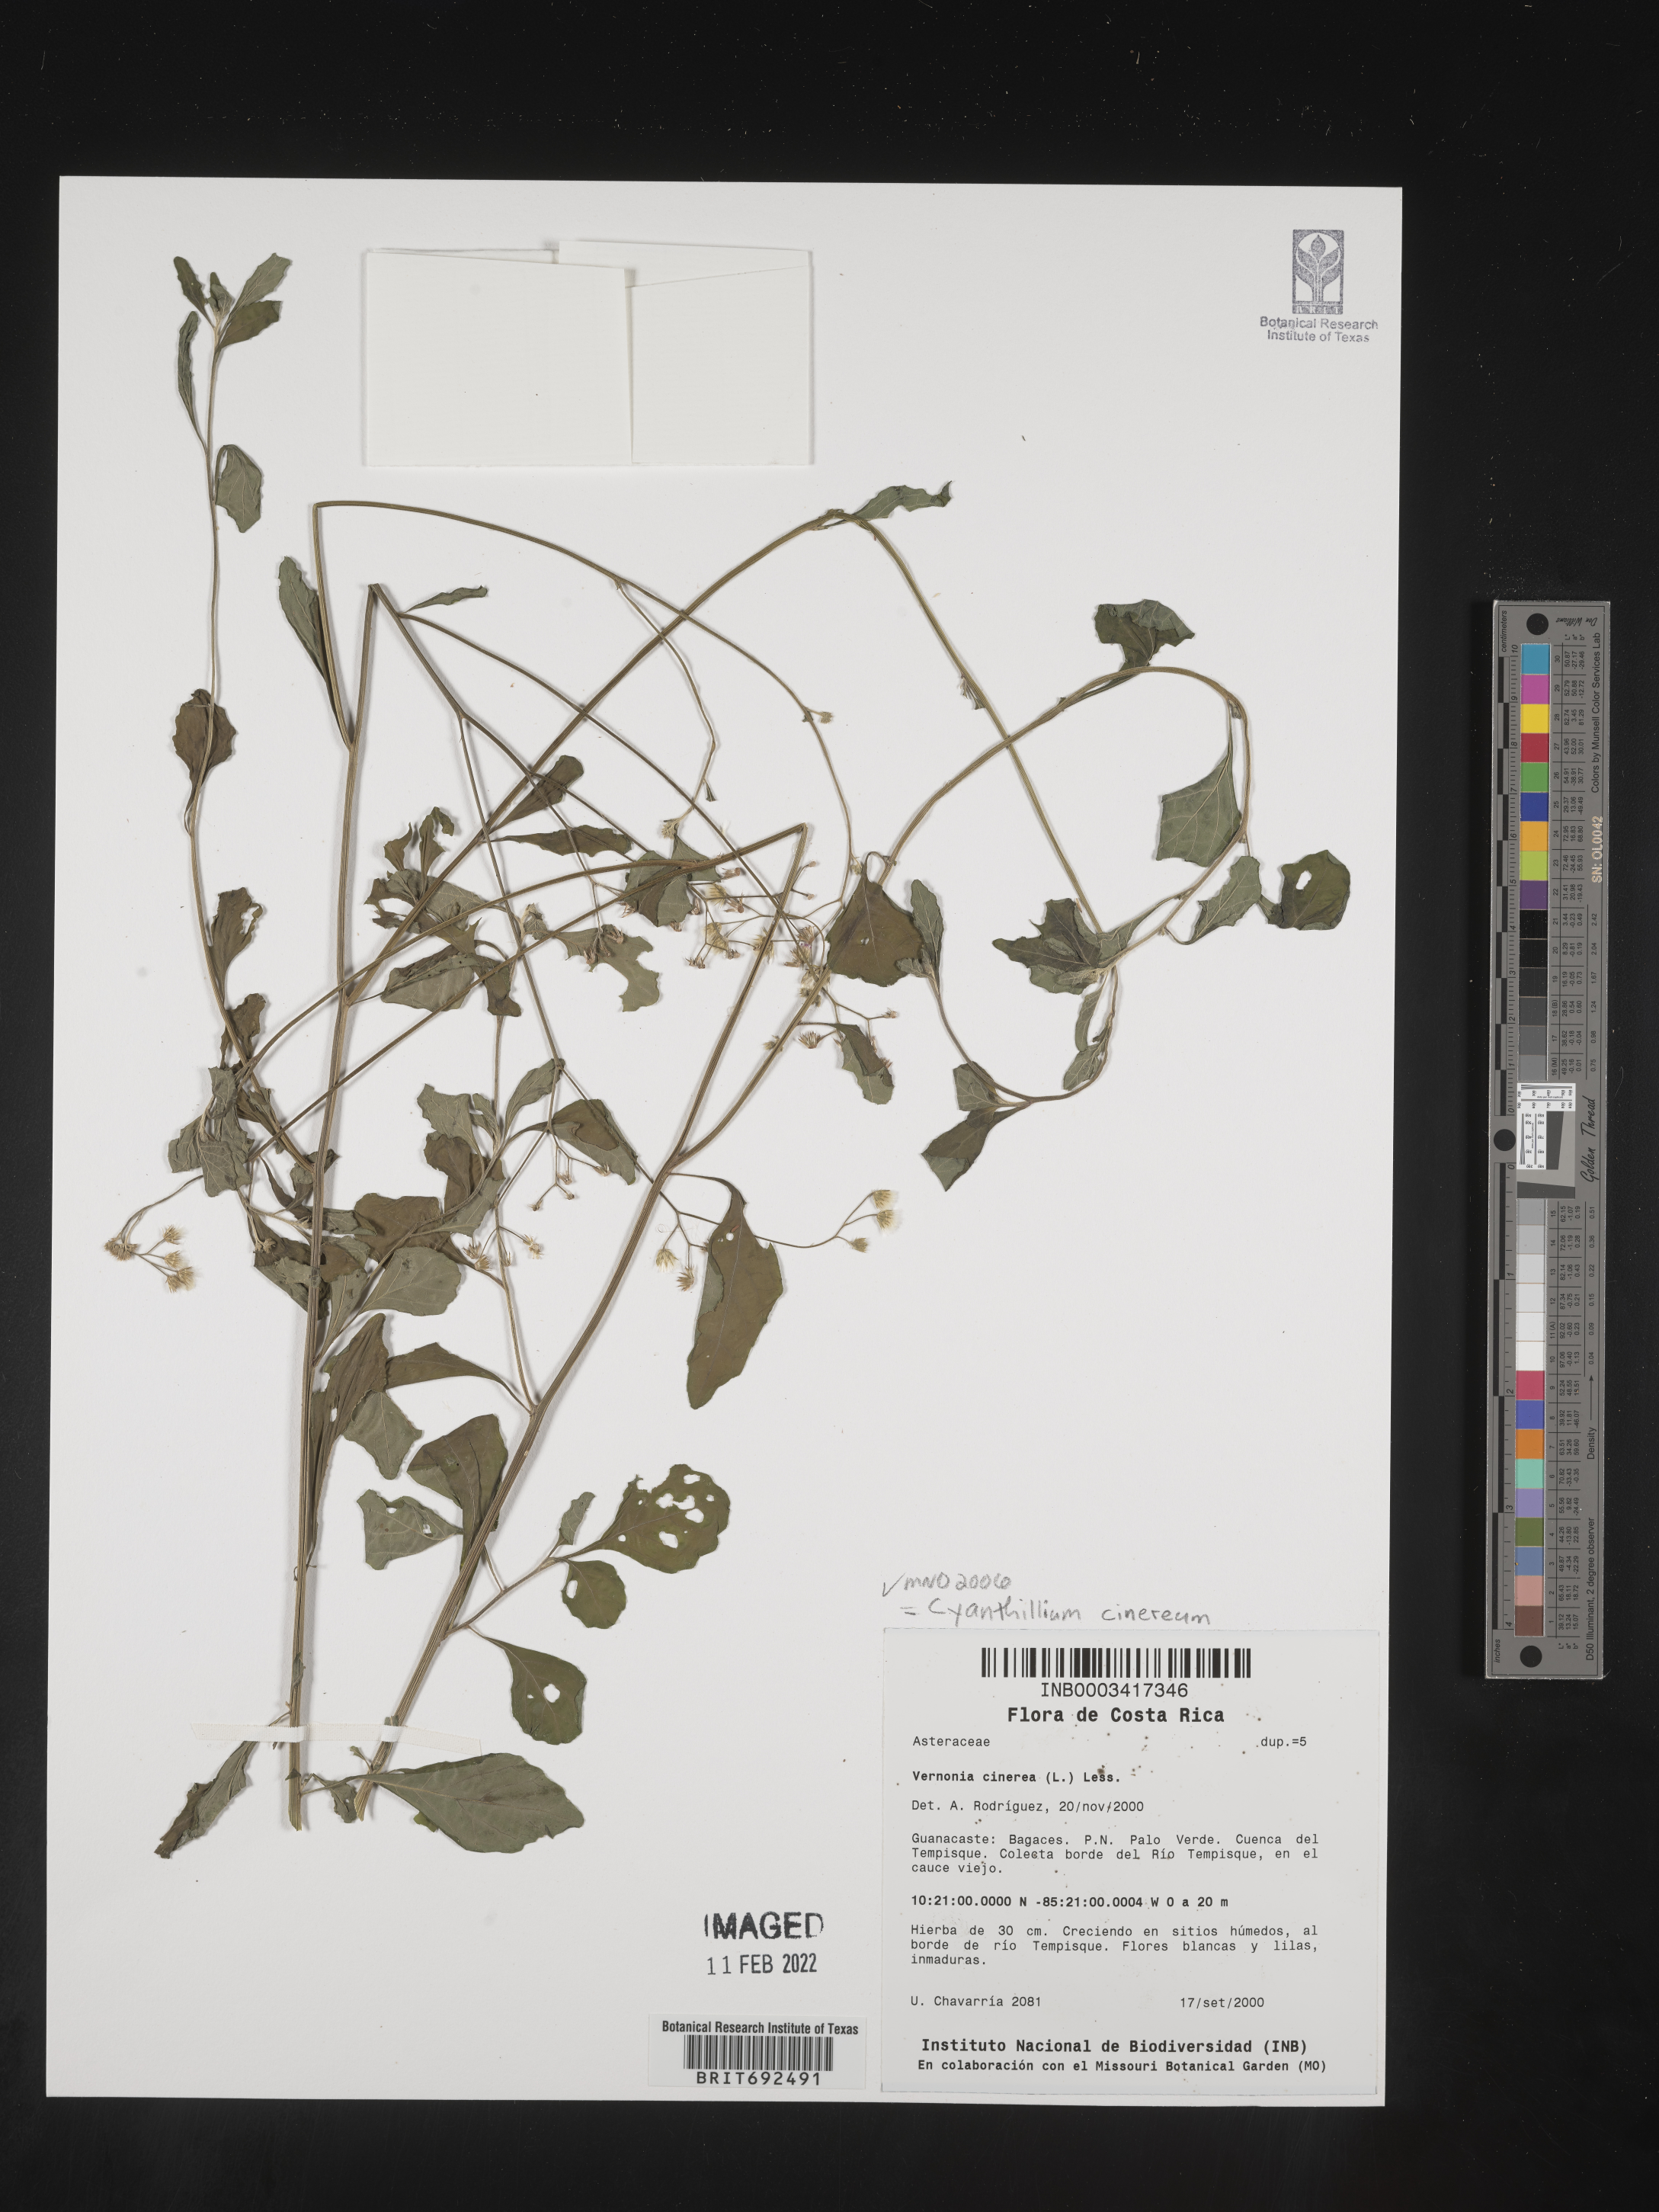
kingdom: Plantae
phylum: Tracheophyta
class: Magnoliopsida
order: Asterales
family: Asteraceae
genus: Cyanthillium
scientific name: Cyanthillium cinereum
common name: Little ironweed
